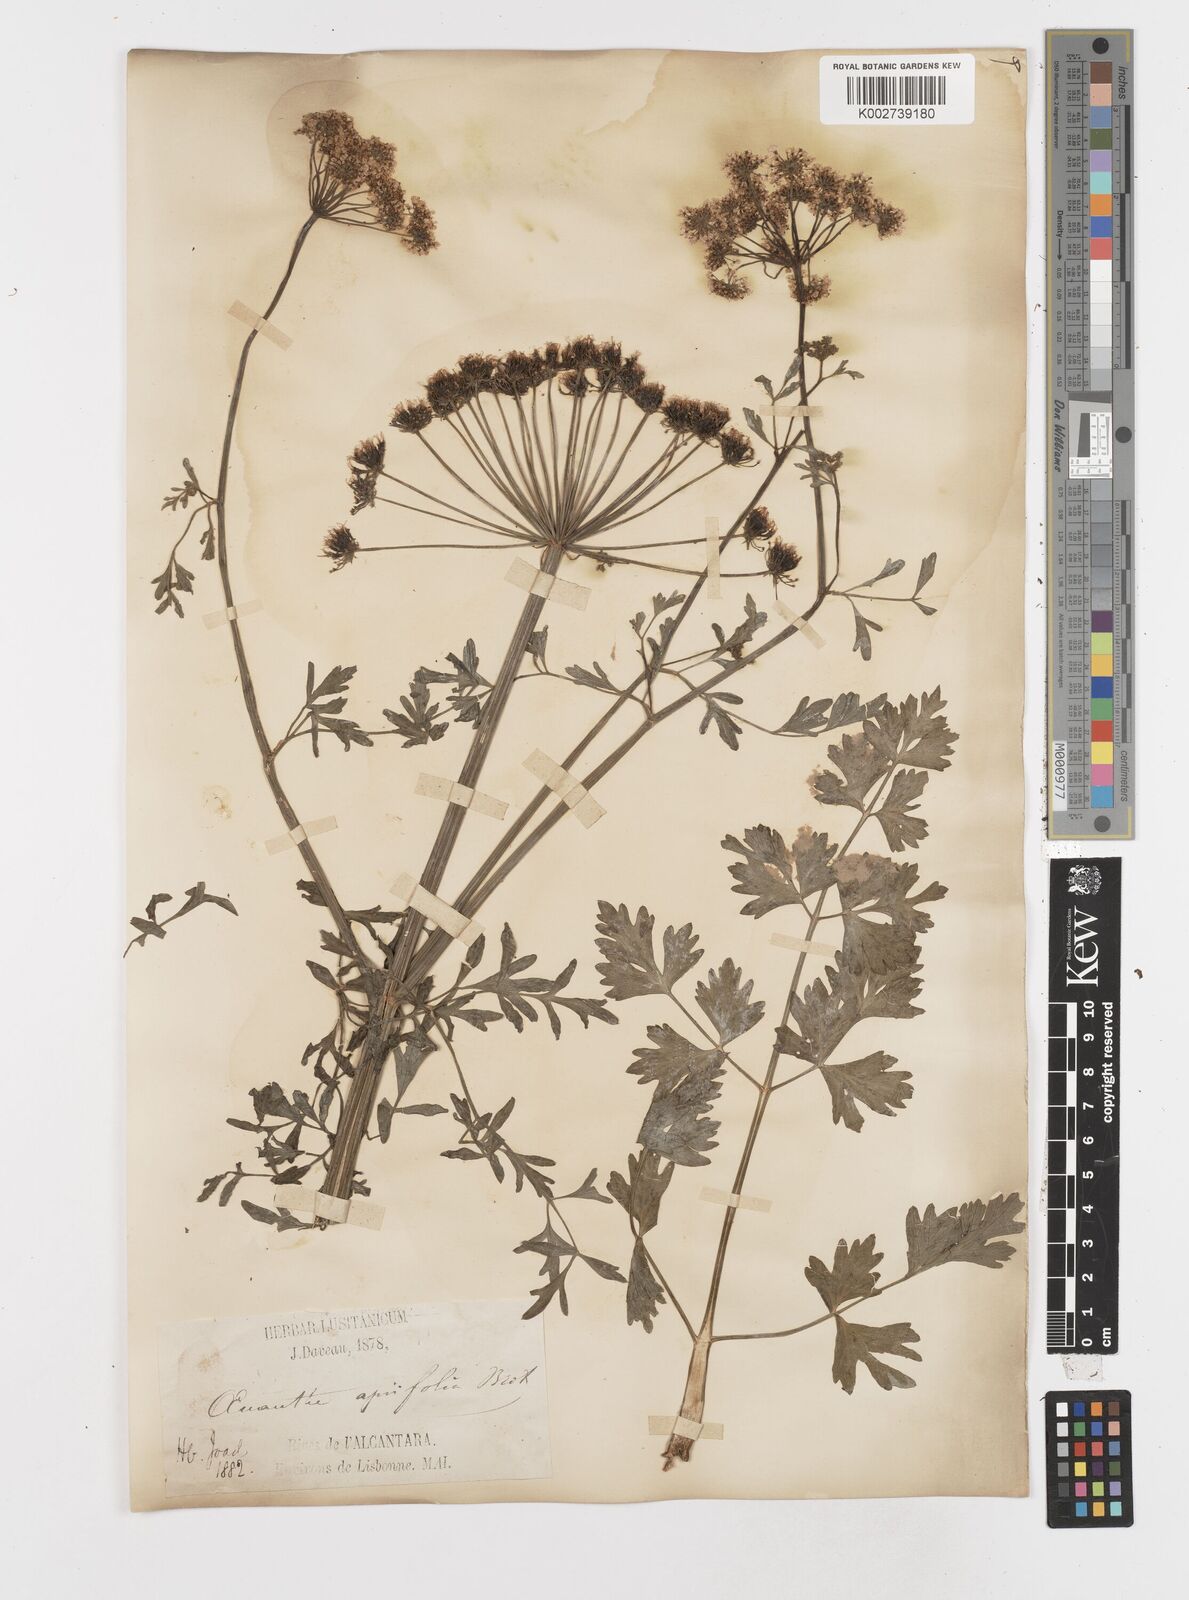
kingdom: Plantae
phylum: Tracheophyta
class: Magnoliopsida
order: Apiales
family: Apiaceae
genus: Oenanthe
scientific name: Oenanthe crocata
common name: Hemlock water-dropwort
